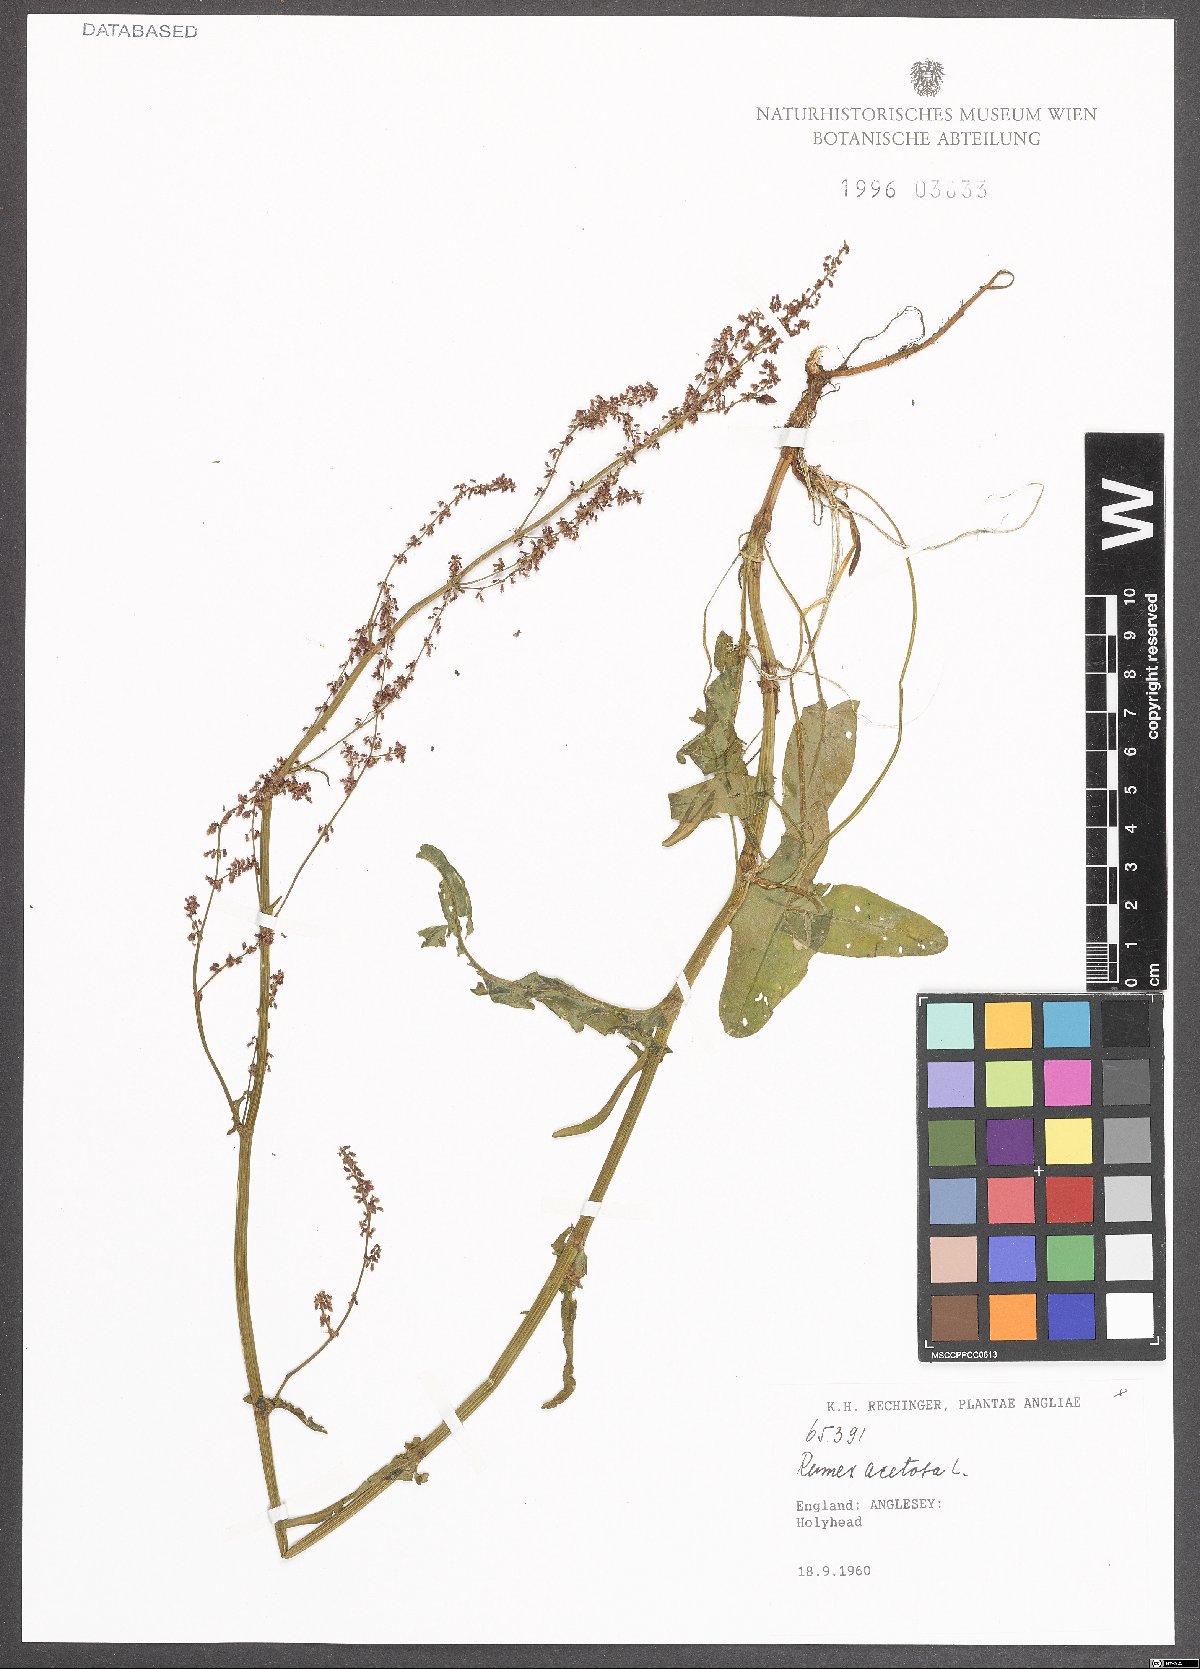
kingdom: Plantae
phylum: Tracheophyta
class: Magnoliopsida
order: Caryophyllales
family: Polygonaceae
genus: Rumex
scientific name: Rumex acetosa
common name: Garden sorrel
